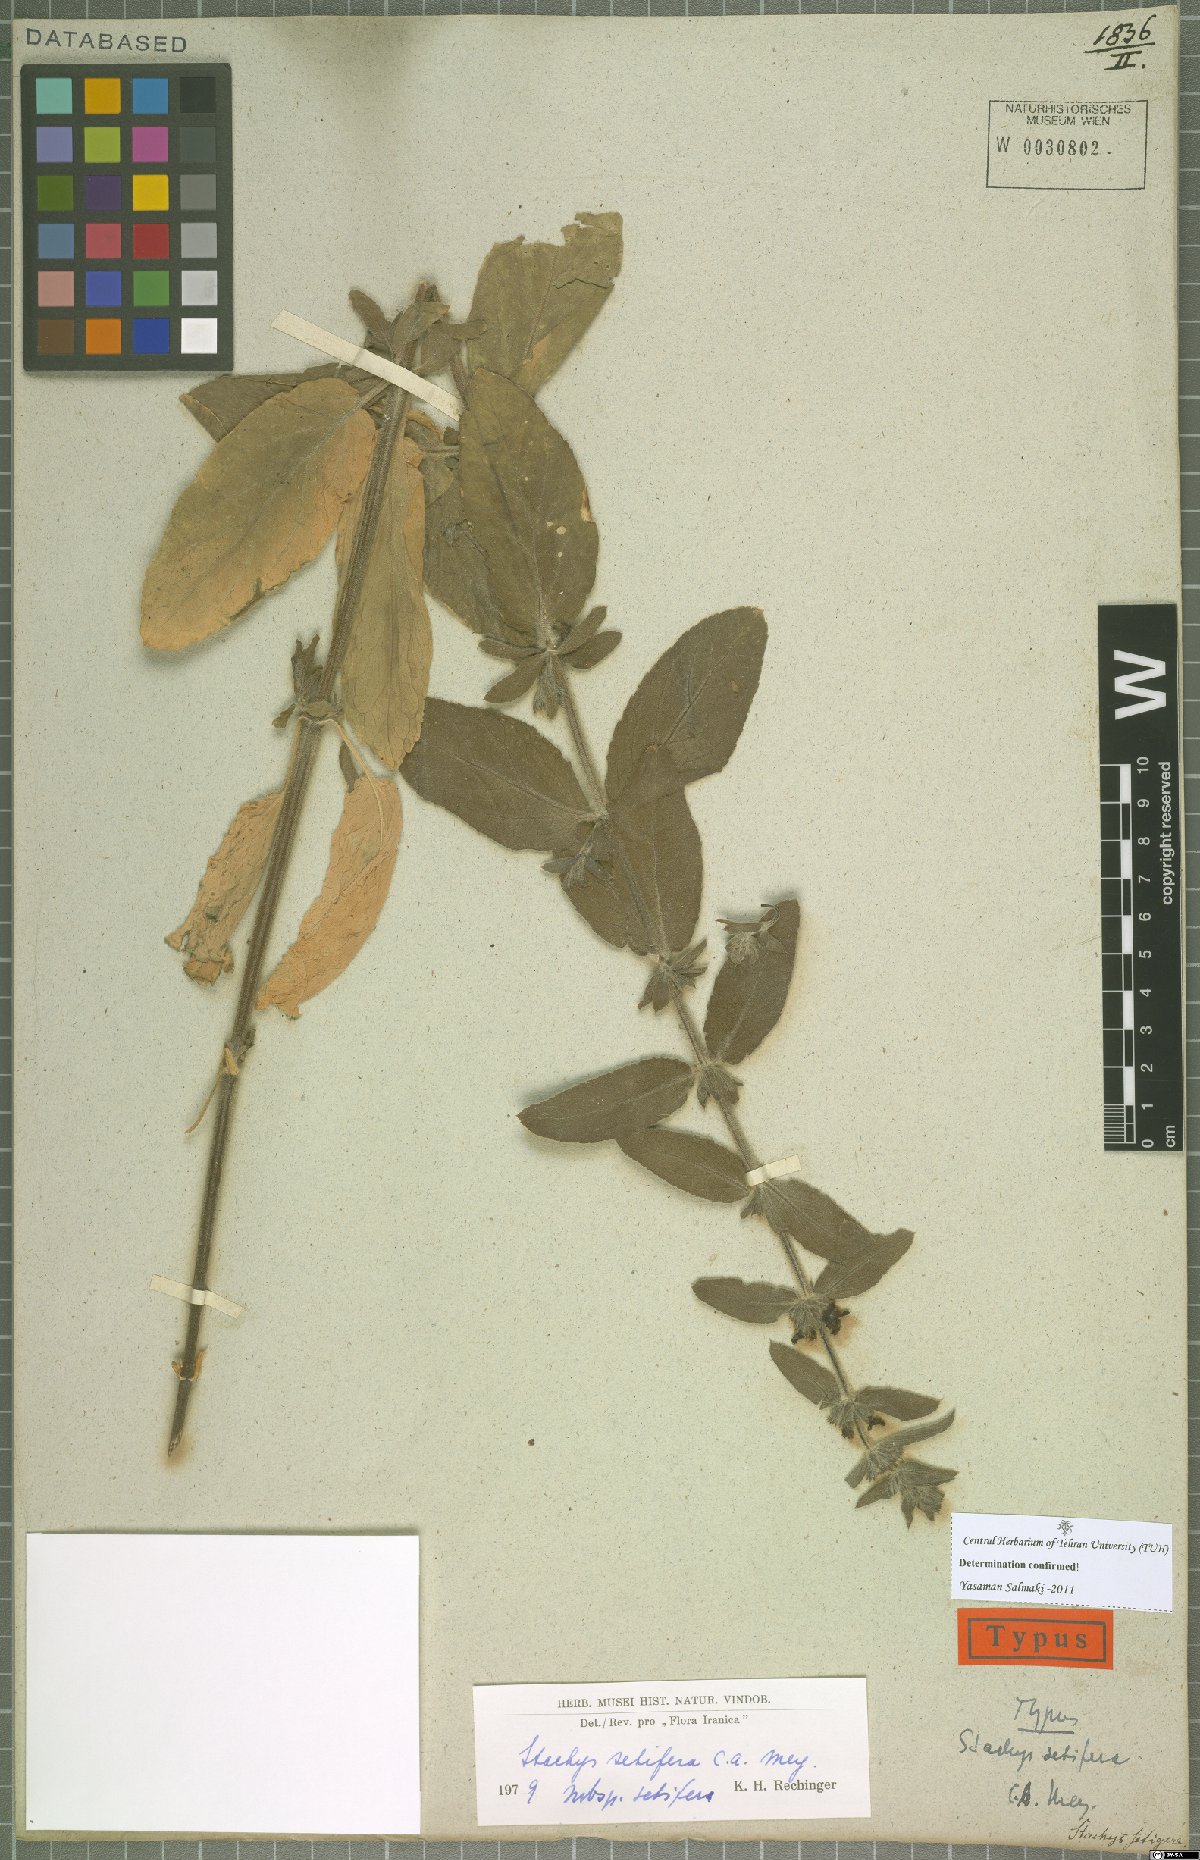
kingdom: Plantae
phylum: Tracheophyta
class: Magnoliopsida
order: Lamiales
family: Lamiaceae
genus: Stachys
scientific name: Stachys setifera
